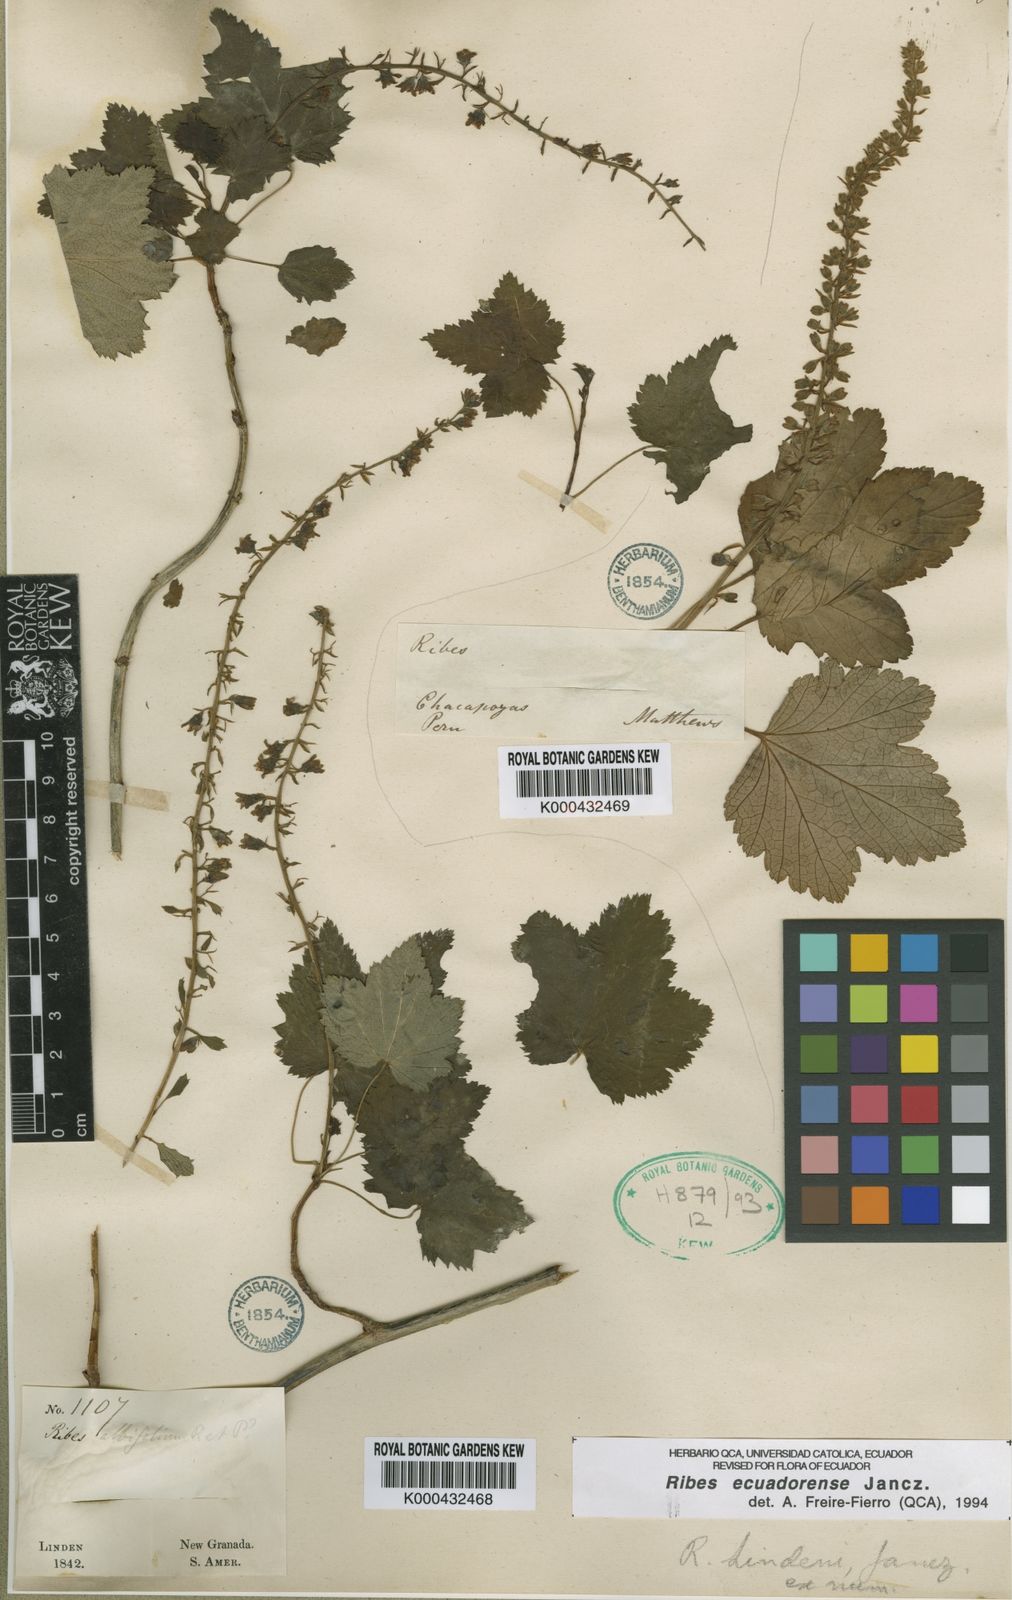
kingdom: Plantae
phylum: Tracheophyta
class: Magnoliopsida
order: Saxifragales
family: Grossulariaceae
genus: Ribes
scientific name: Ribes ecuadorense
